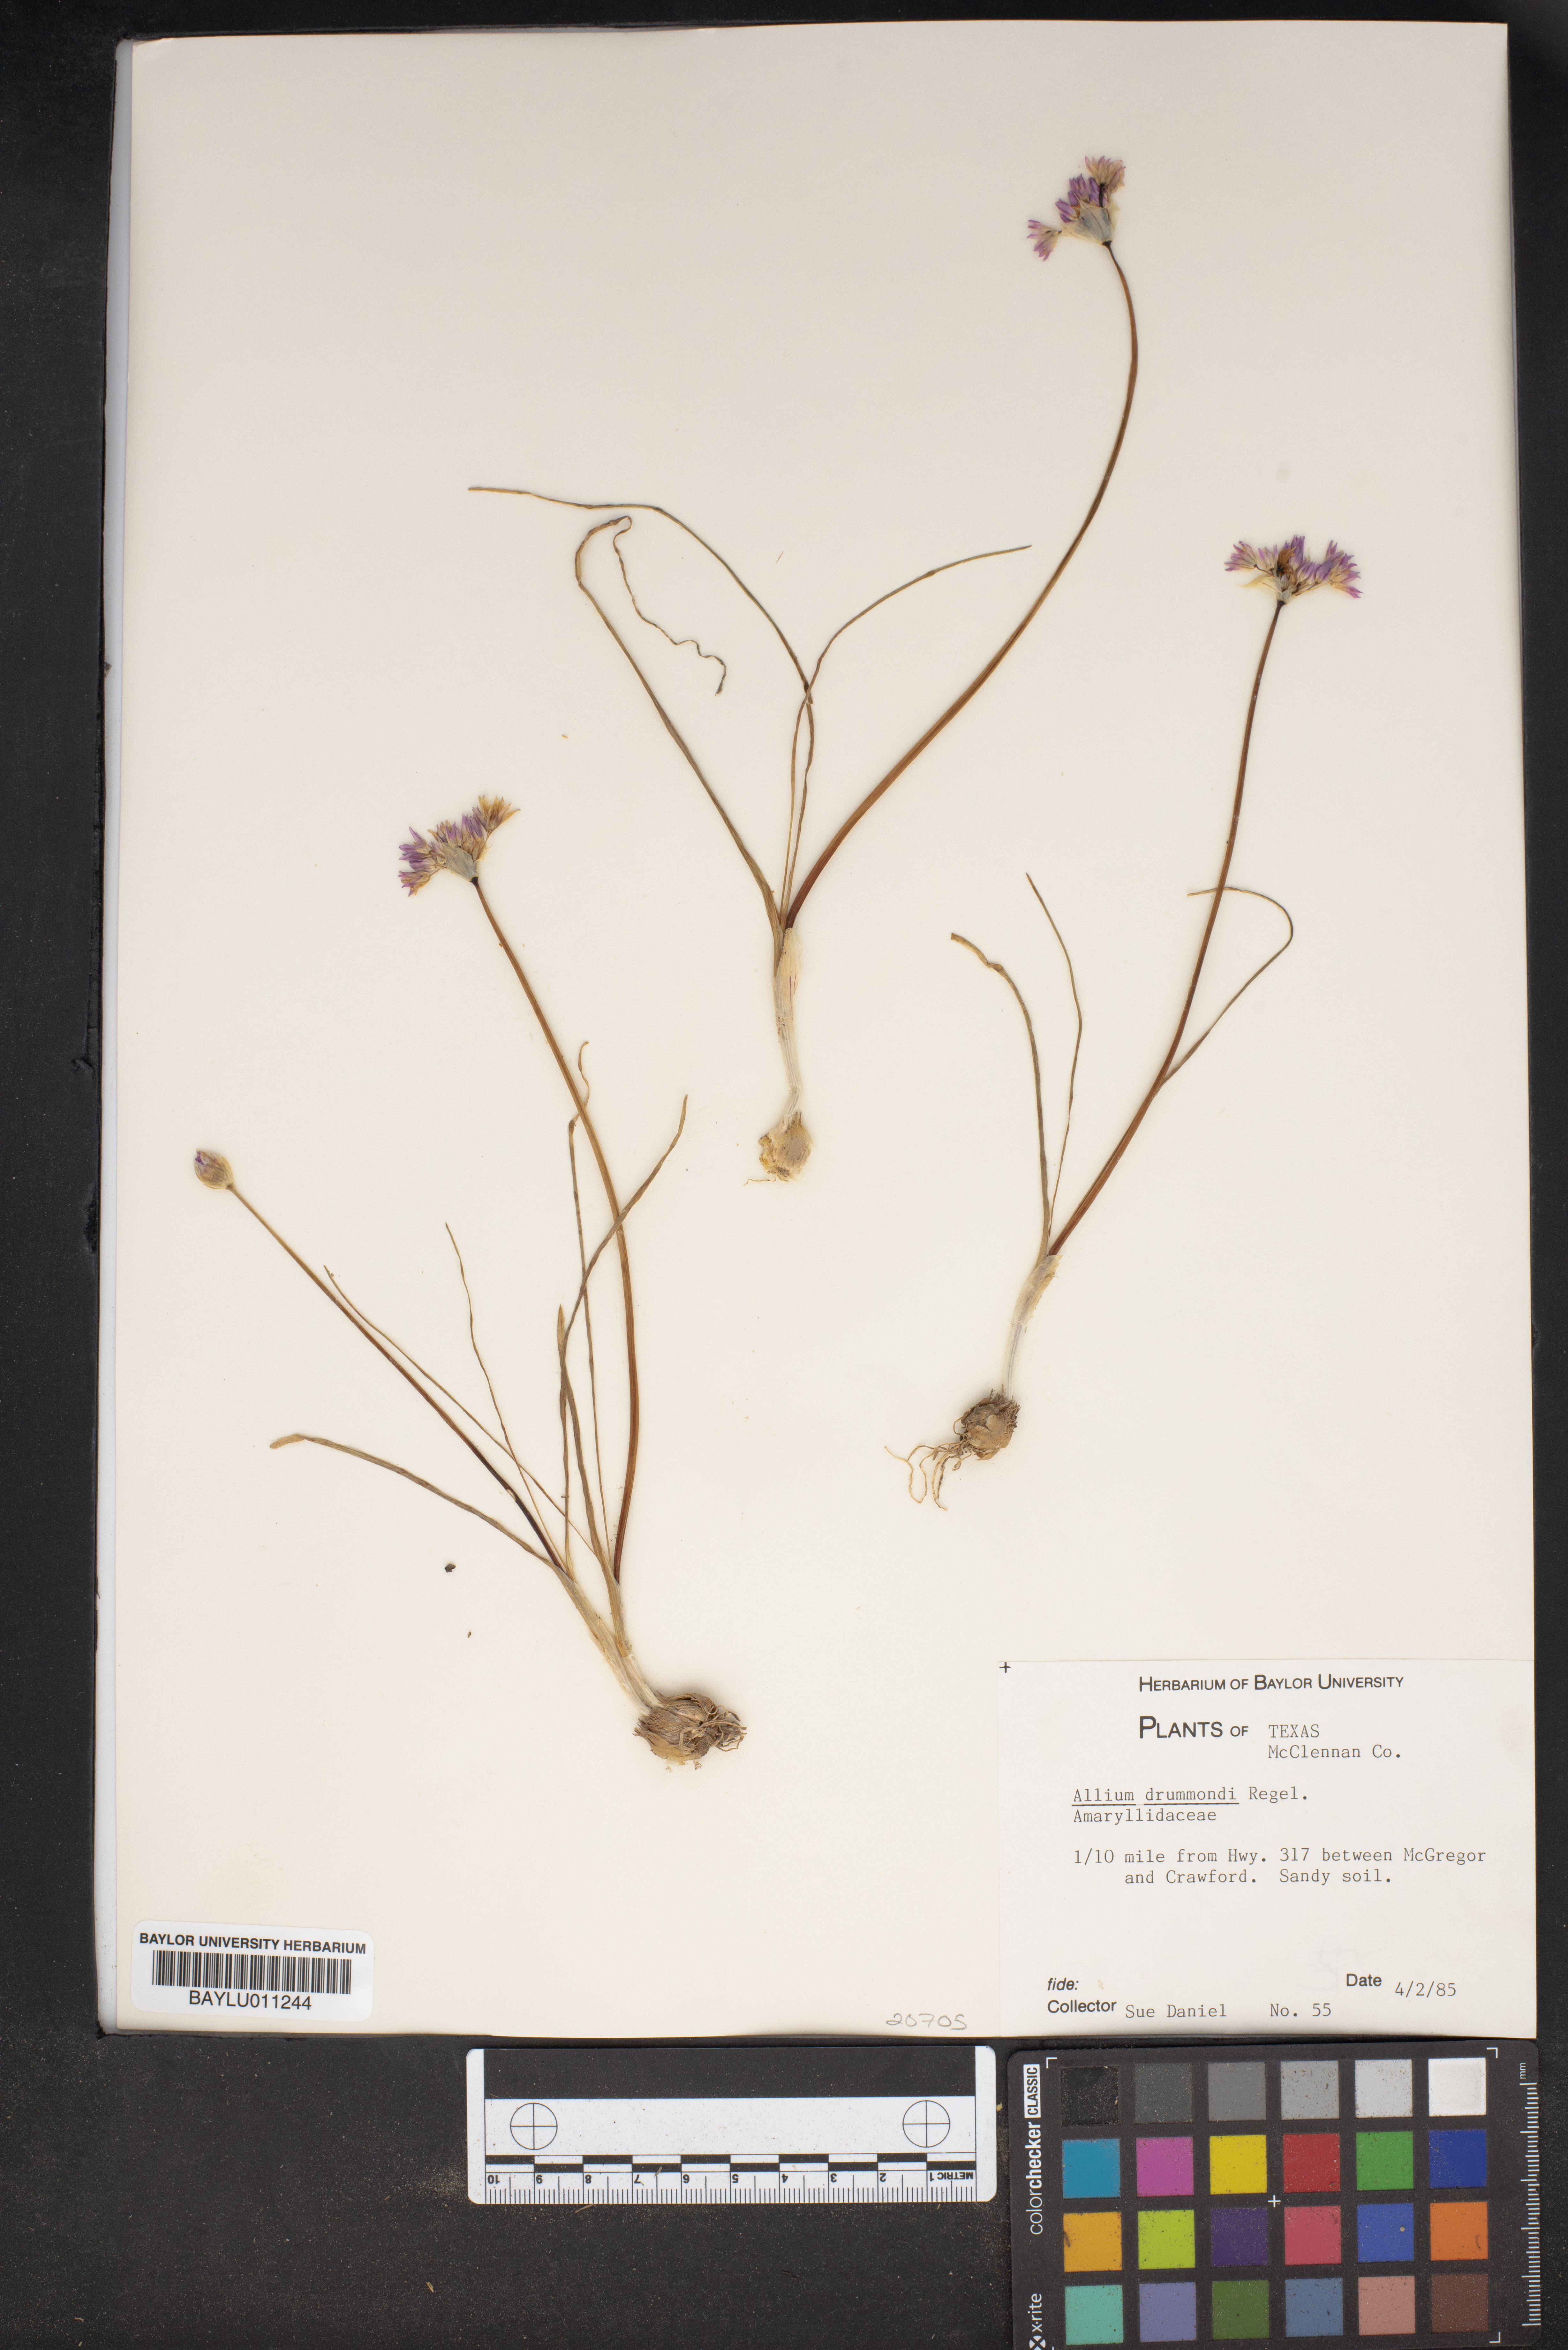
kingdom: Plantae
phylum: Tracheophyta
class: Liliopsida
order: Asparagales
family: Amaryllidaceae
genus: Allium
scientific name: Allium drummondii
